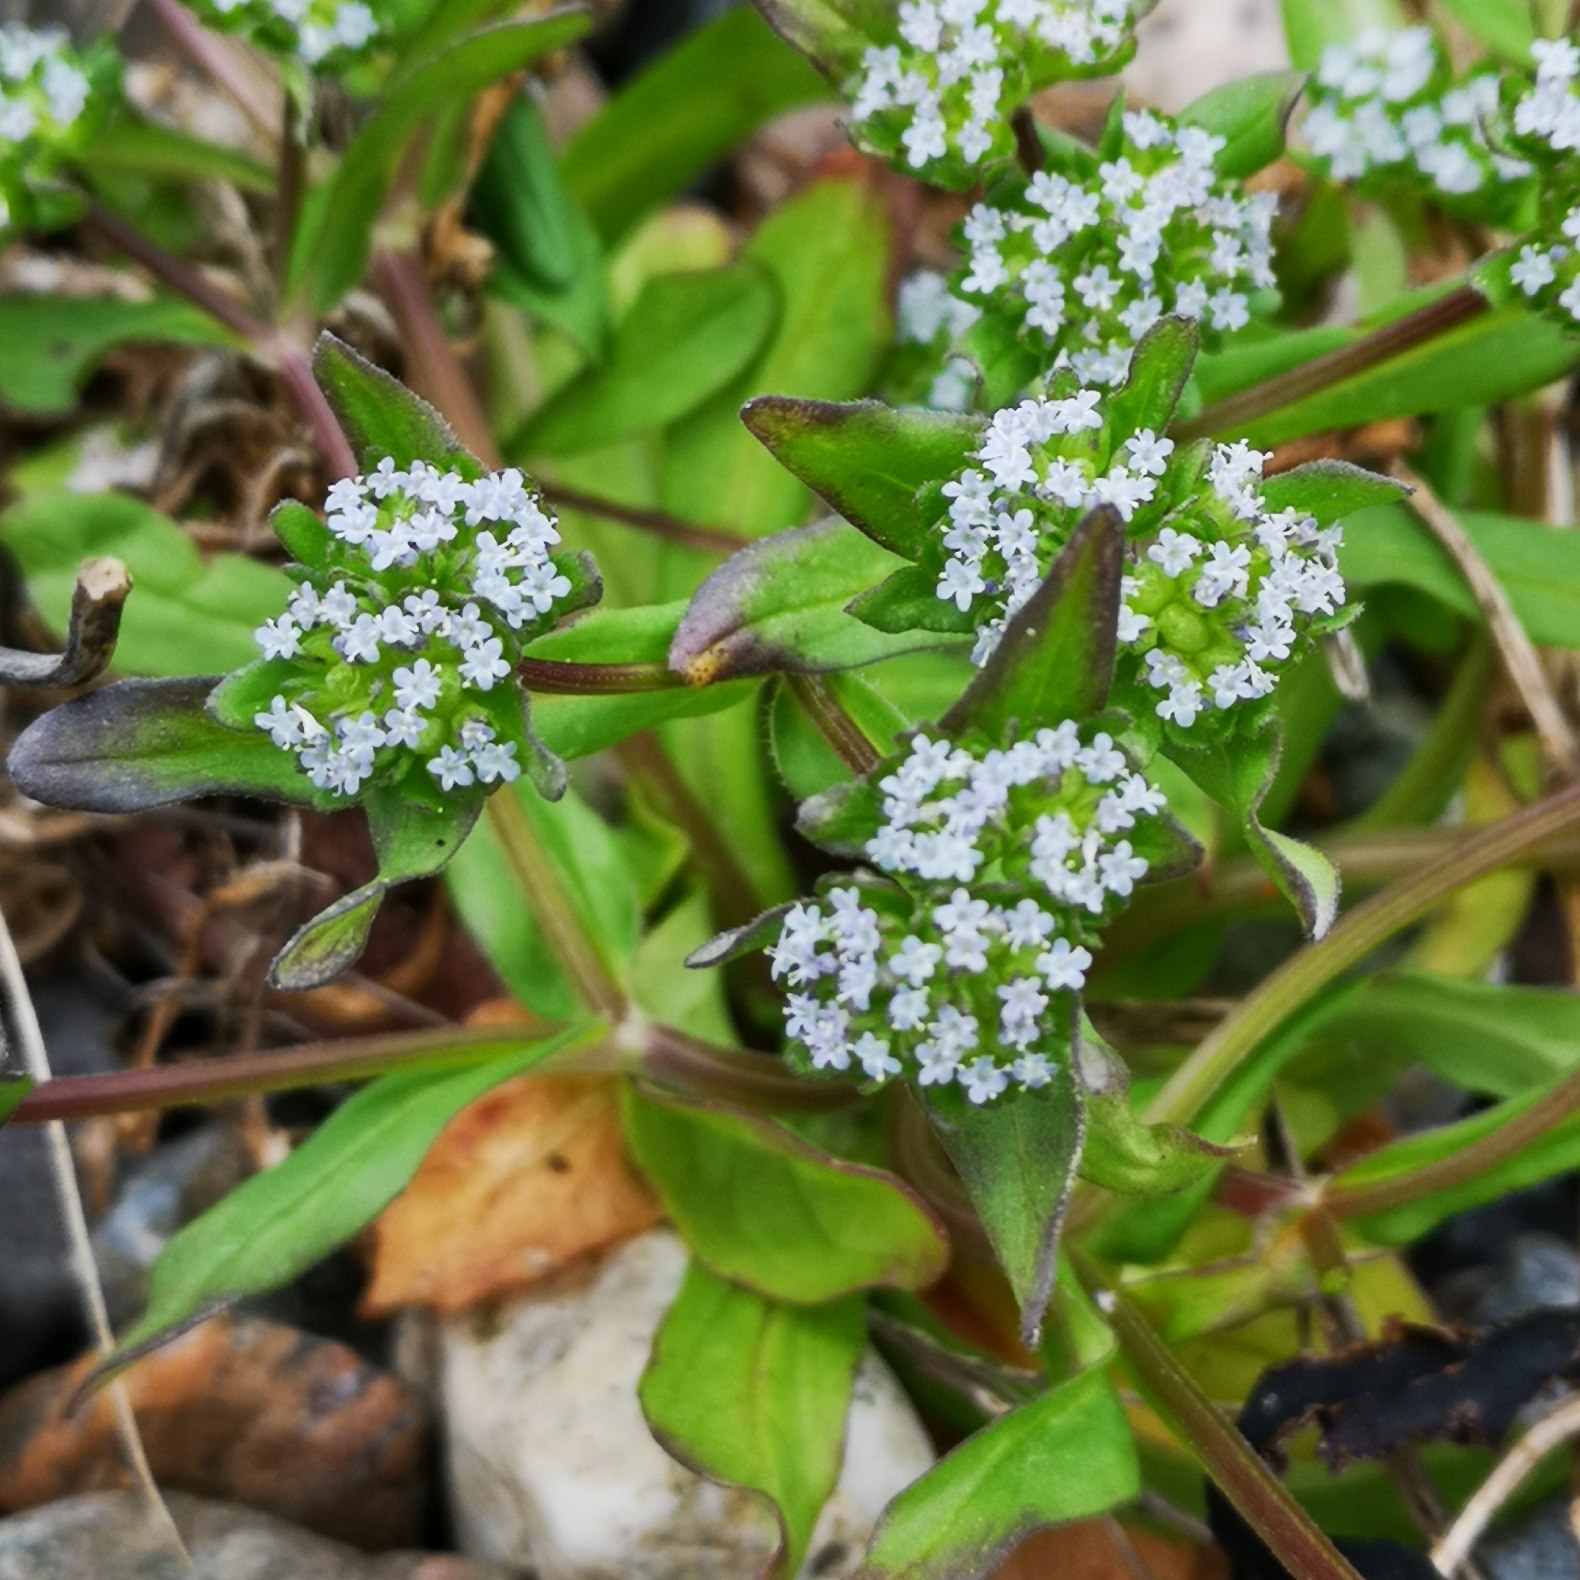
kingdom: Plantae
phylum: Tracheophyta
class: Magnoliopsida
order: Dipsacales
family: Caprifoliaceae
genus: Valerianella
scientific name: Valerianella locusta
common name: Tandfri vårsalat
